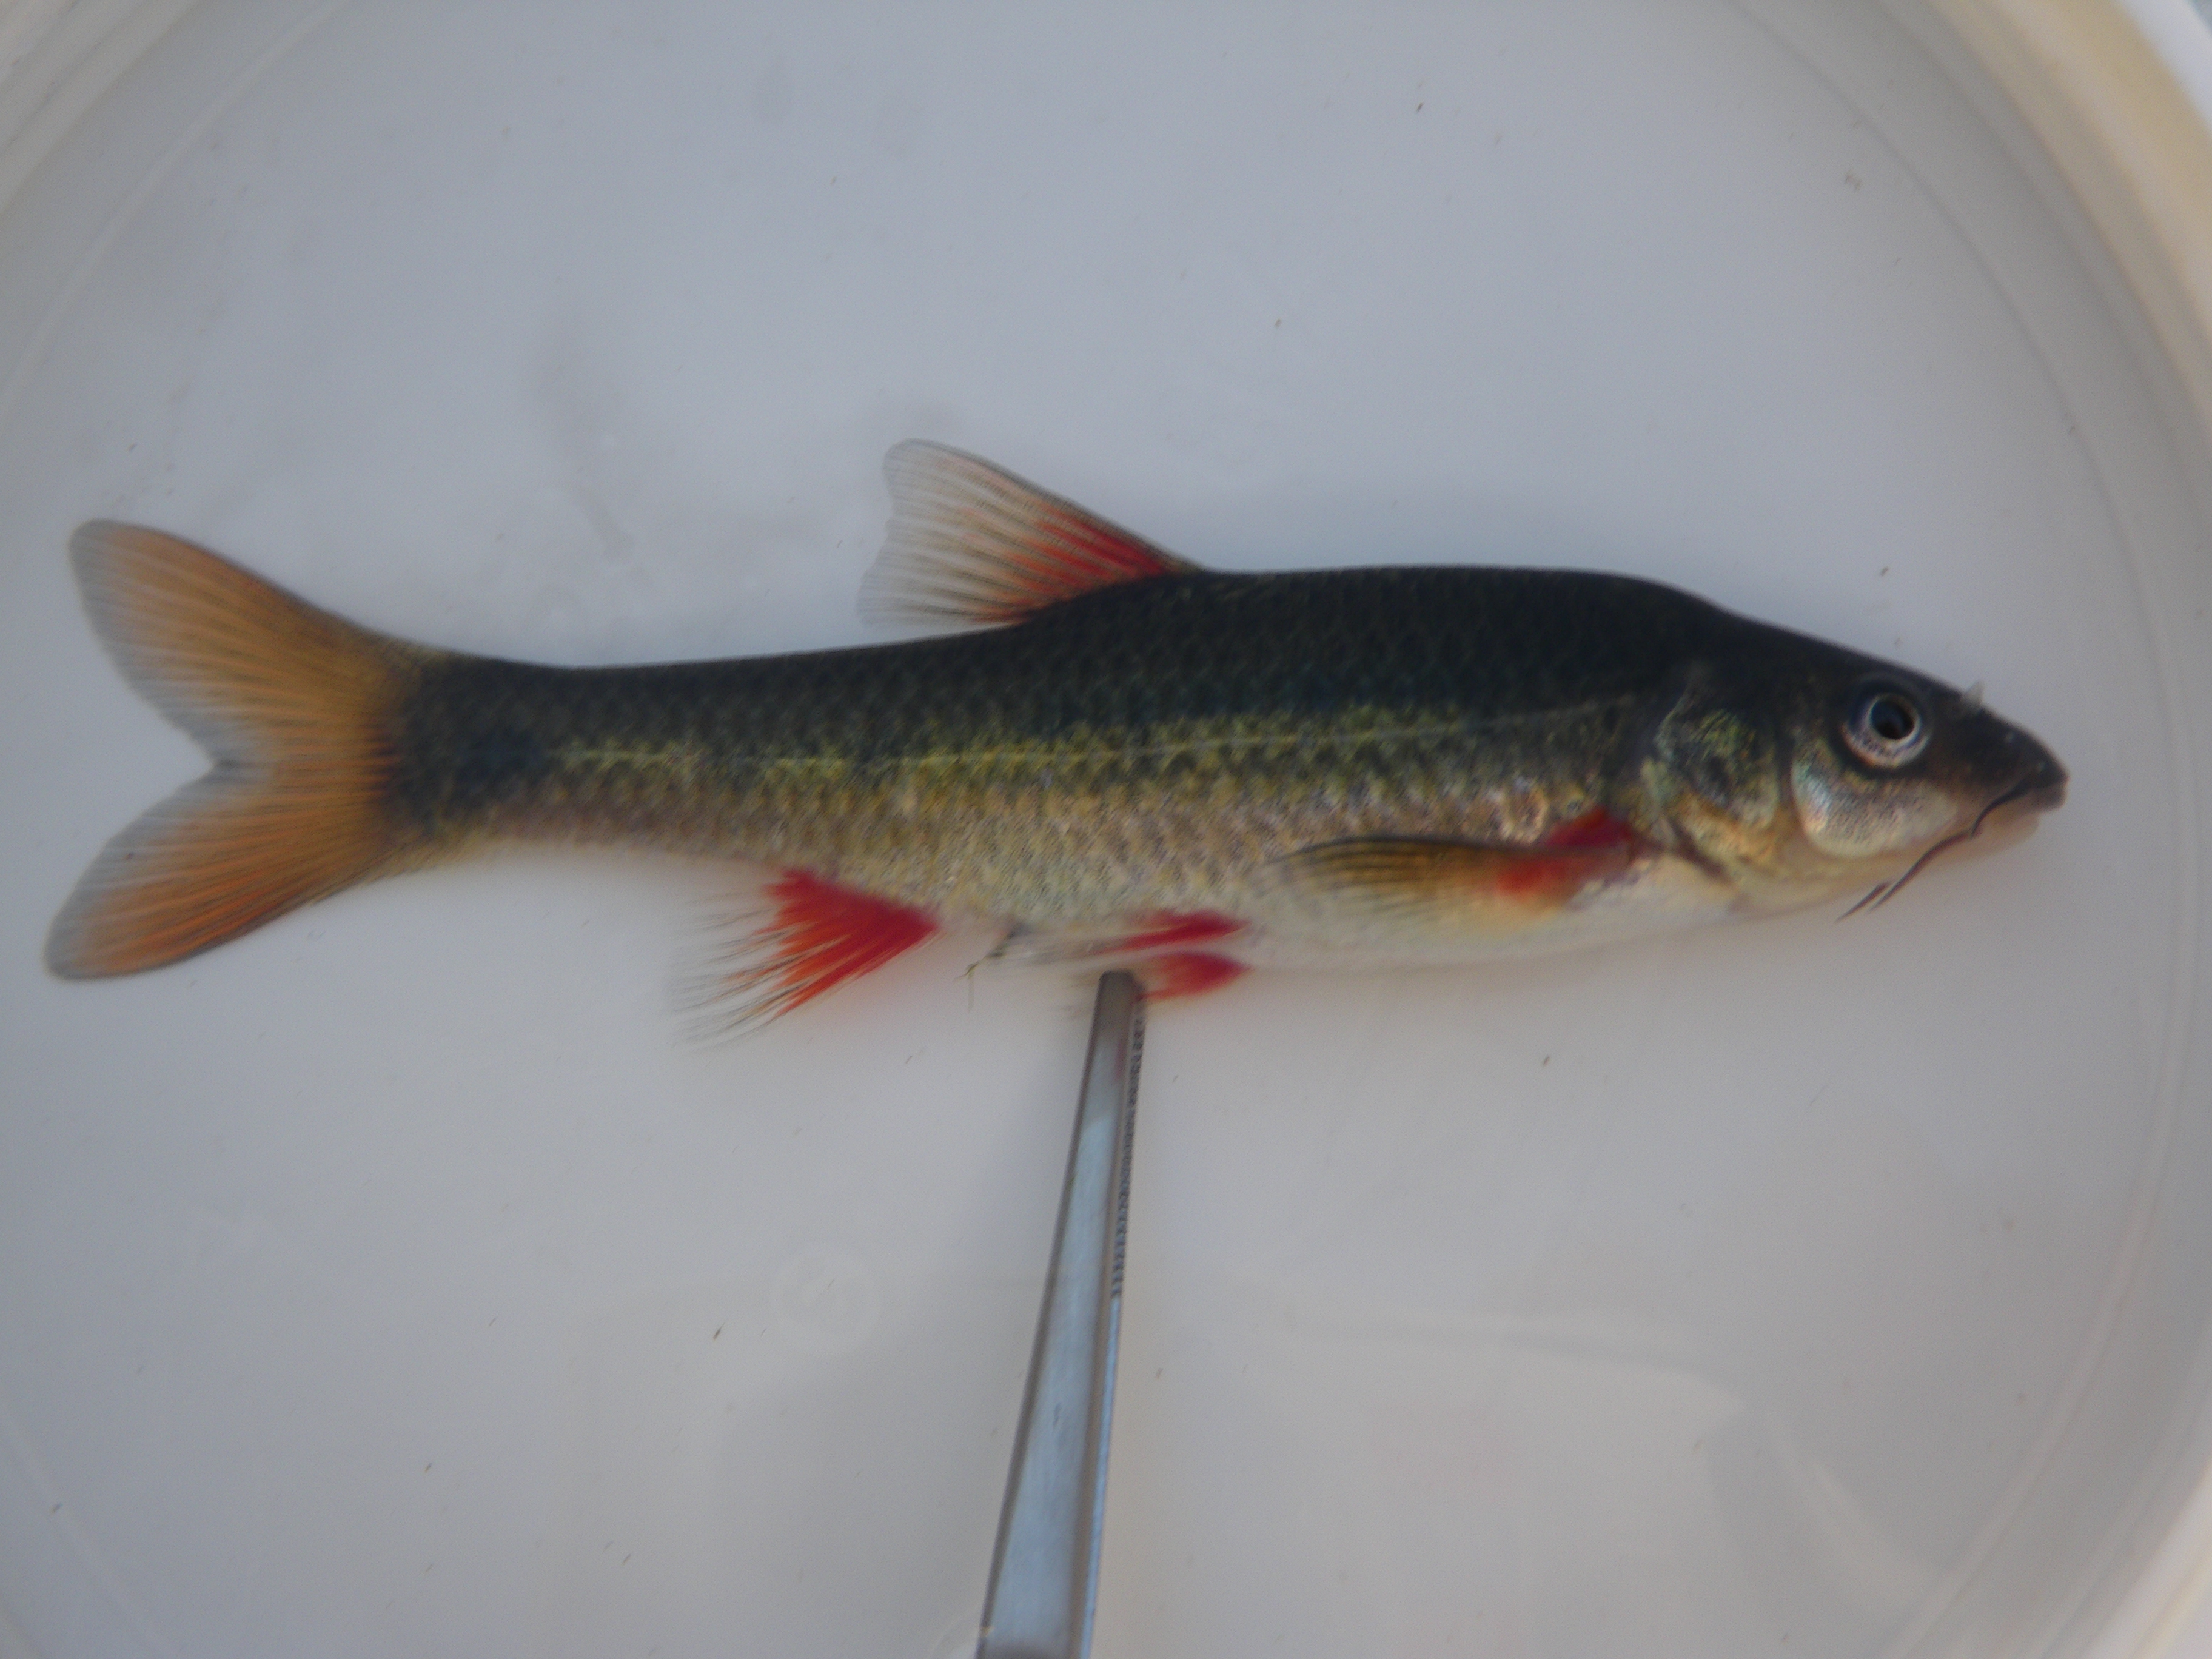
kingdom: Animalia
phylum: Chordata
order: Cypriniformes
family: Cyprinidae
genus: Pseudobarbus
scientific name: Pseudobarbus burchelli
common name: Burchell's redfin
